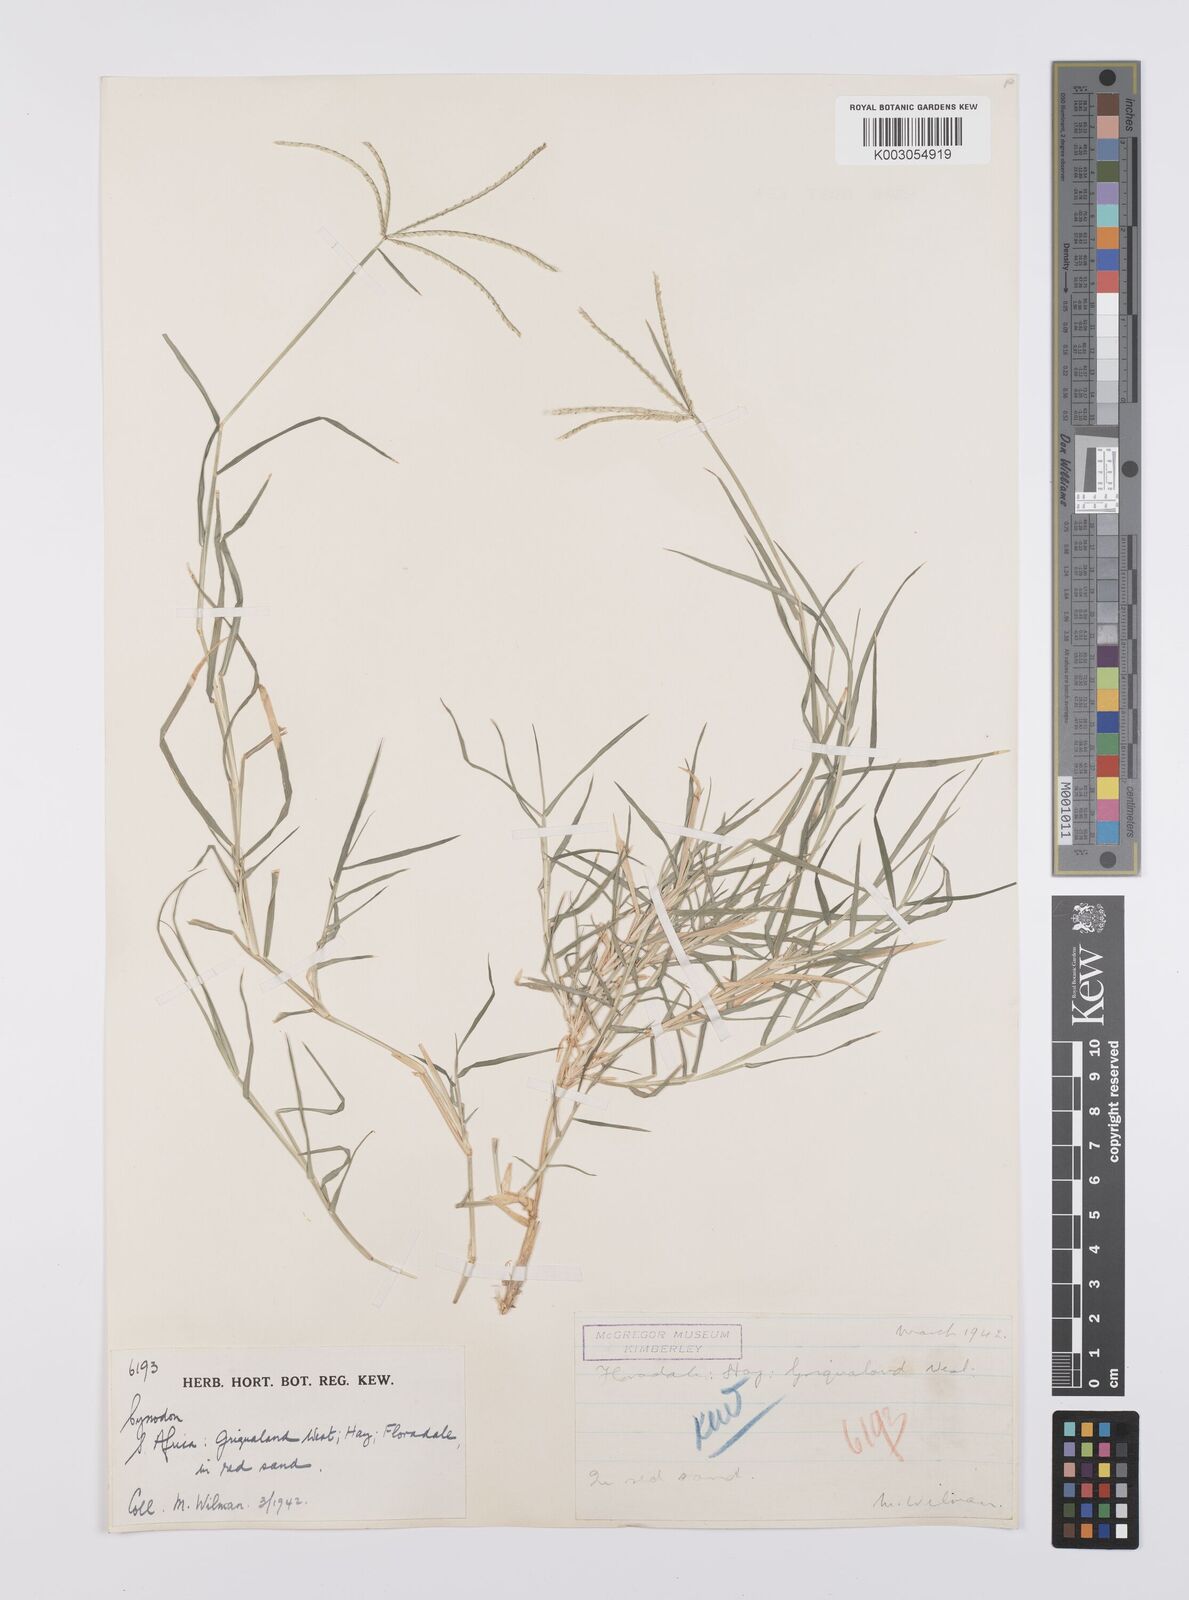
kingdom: Plantae
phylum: Tracheophyta
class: Liliopsida
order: Poales
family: Poaceae
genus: Cynodon
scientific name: Cynodon dactylon
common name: Bermuda grass
